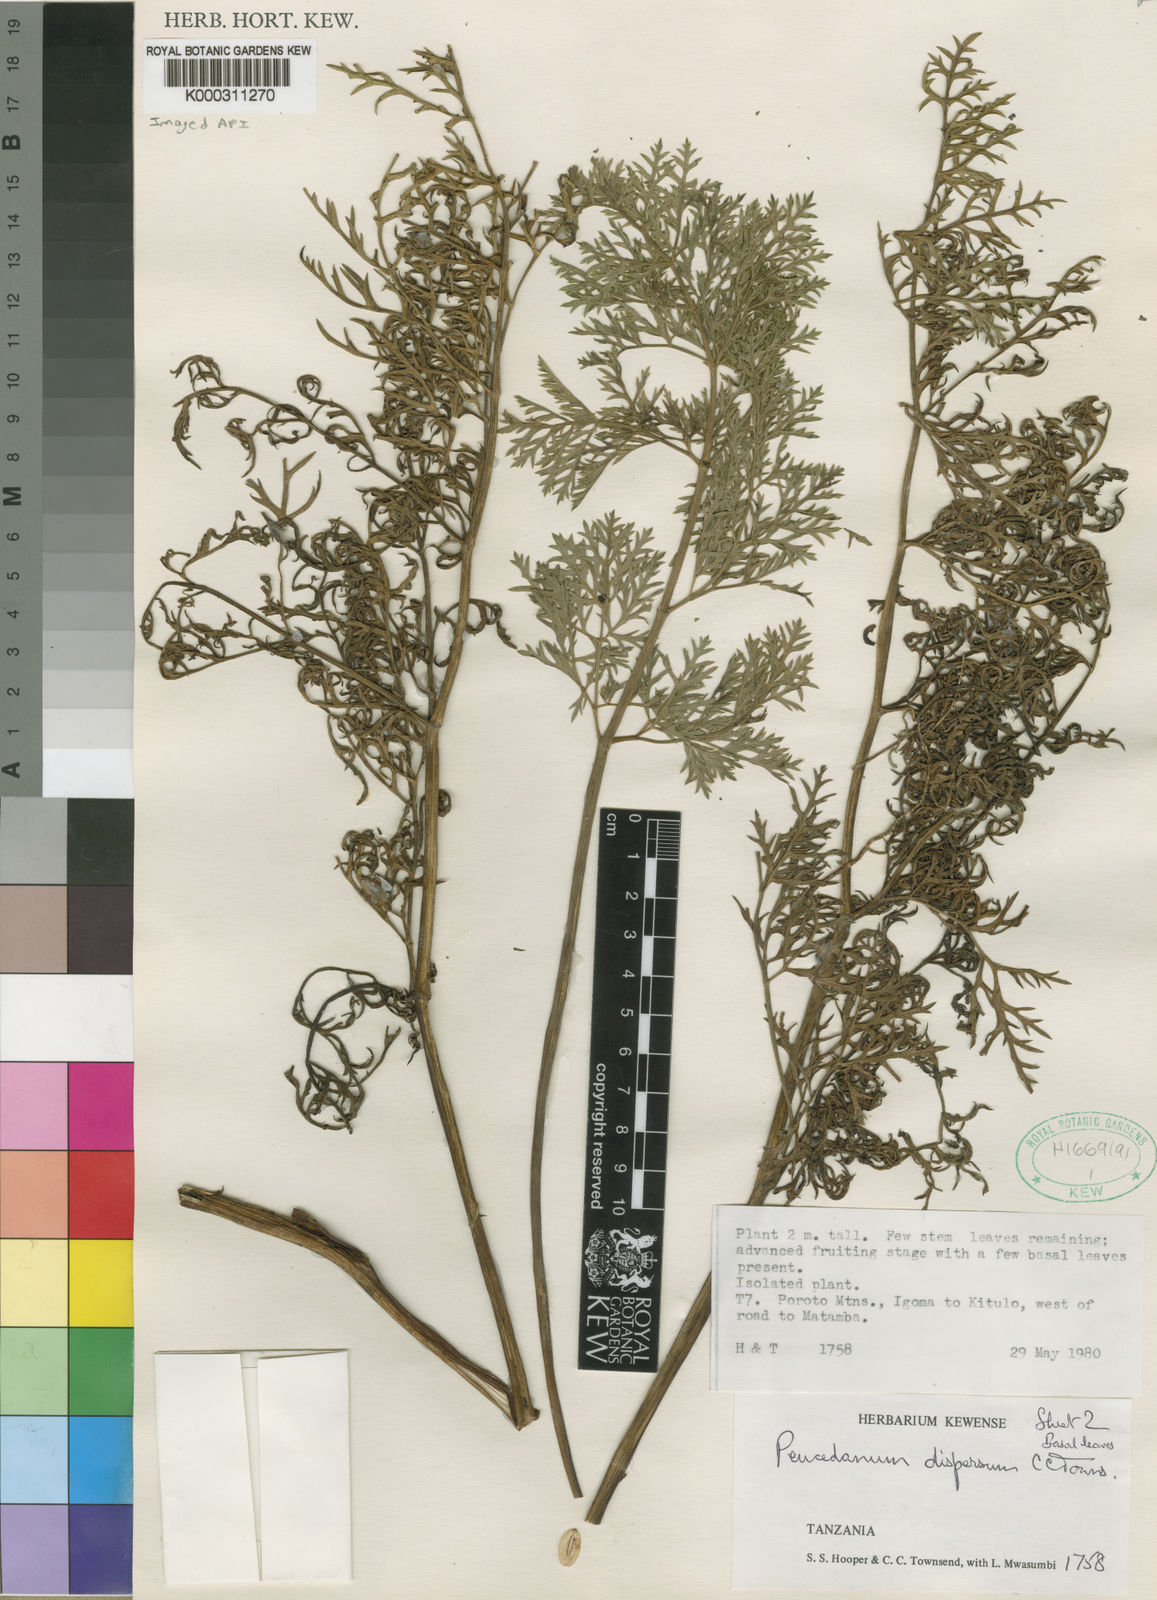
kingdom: Plantae
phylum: Tracheophyta
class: Magnoliopsida
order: Apiales
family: Apiaceae
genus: Afrosciadium
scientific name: Afrosciadium dispersum
